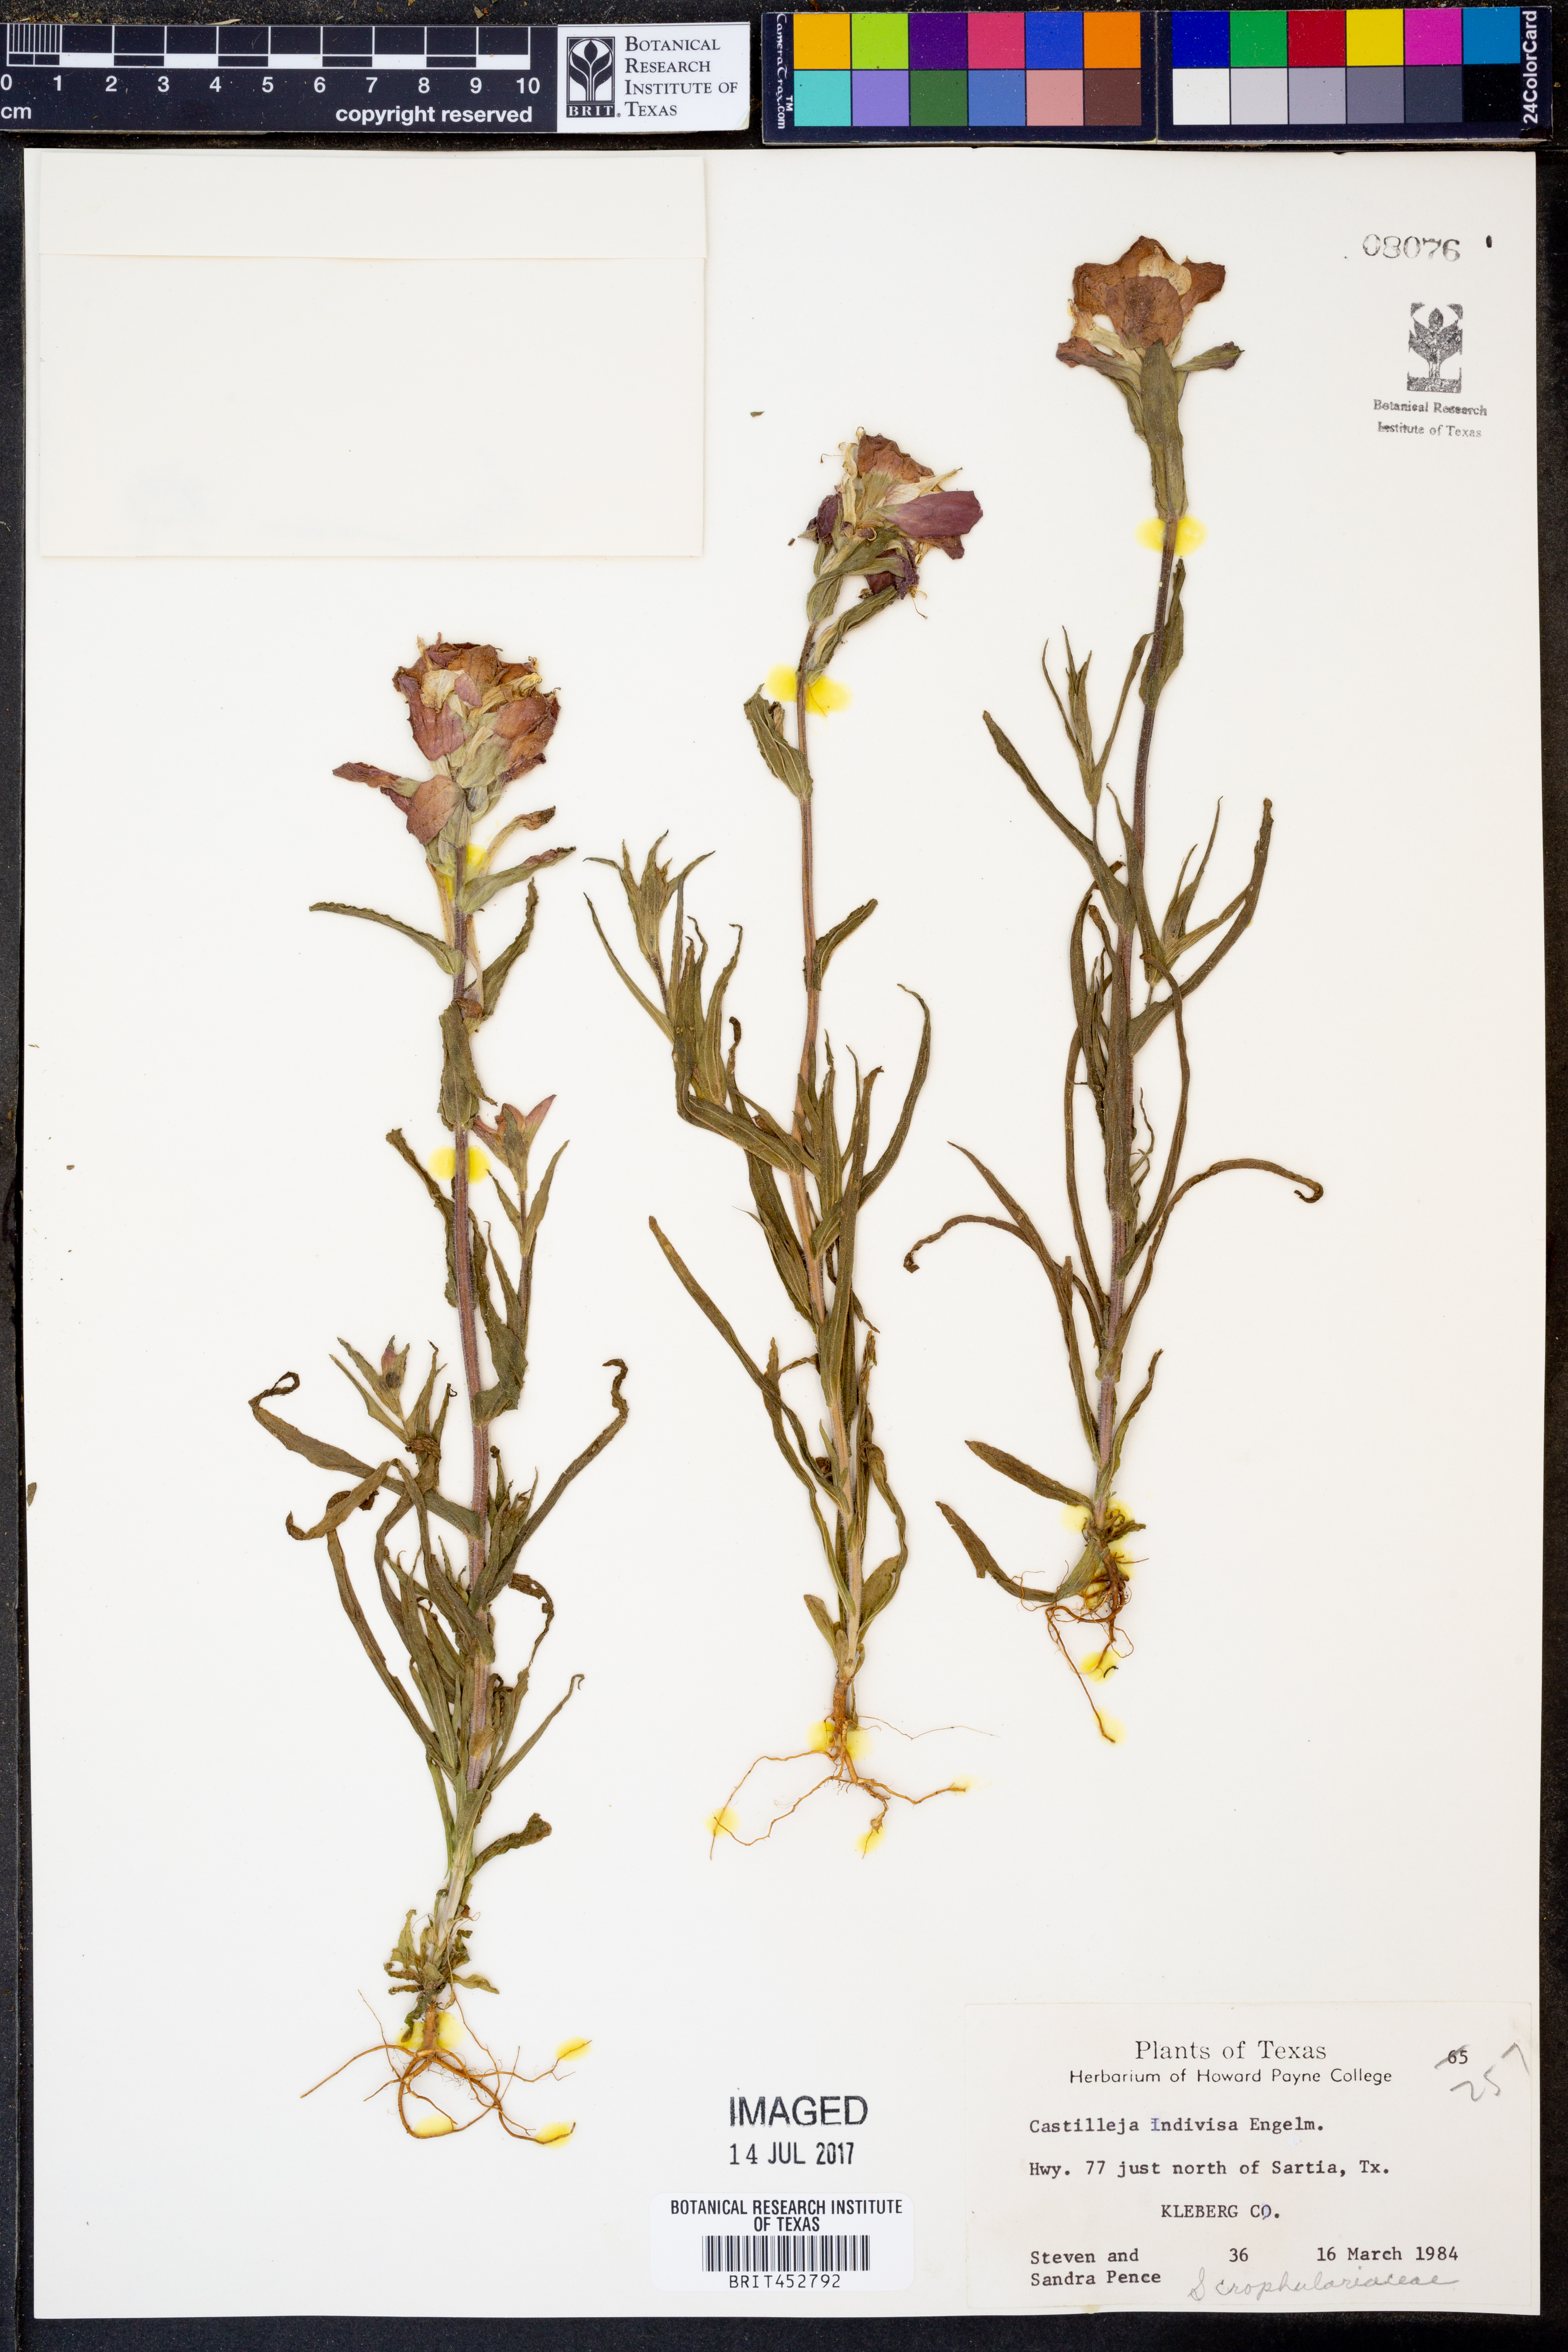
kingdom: Plantae
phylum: Tracheophyta
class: Magnoliopsida
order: Lamiales
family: Orobanchaceae
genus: Castilleja
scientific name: Castilleja indivisa
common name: Texas paintbrush
